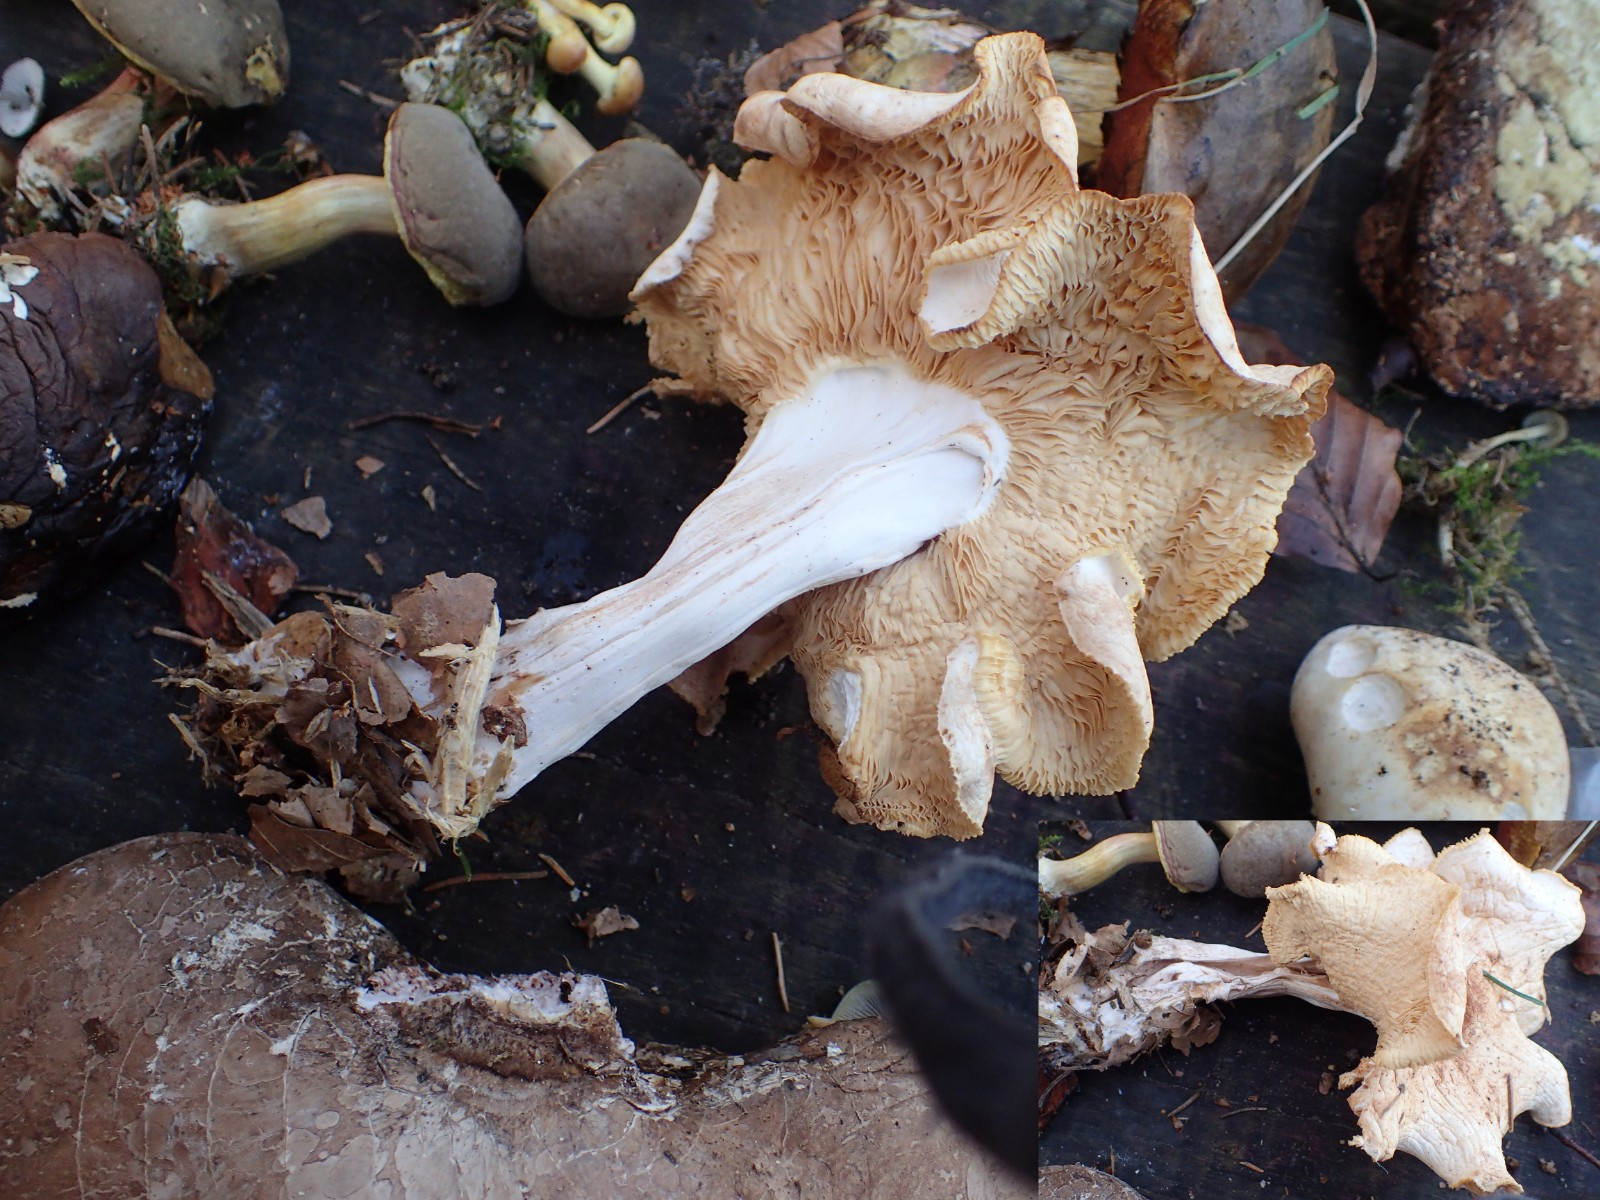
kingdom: Fungi
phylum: Basidiomycota
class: Agaricomycetes
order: Agaricales
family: Tricholomataceae
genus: Infundibulicybe
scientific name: Infundibulicybe geotropa
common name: stor tragthat
